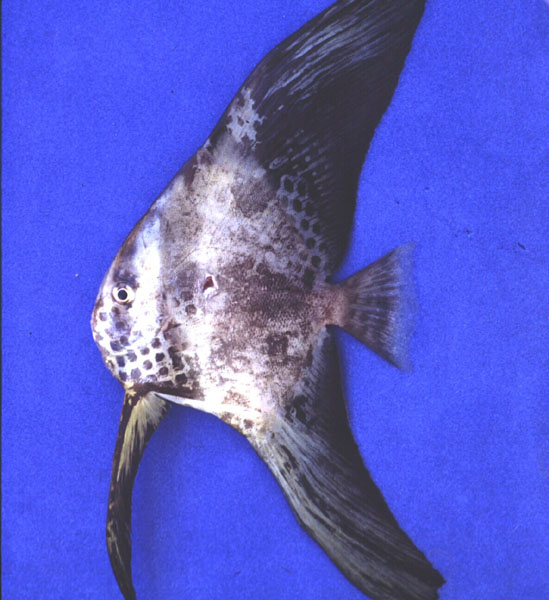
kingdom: Animalia
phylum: Chordata
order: Perciformes
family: Ephippidae
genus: Platax
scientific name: Platax teira
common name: Longfin baitfish
